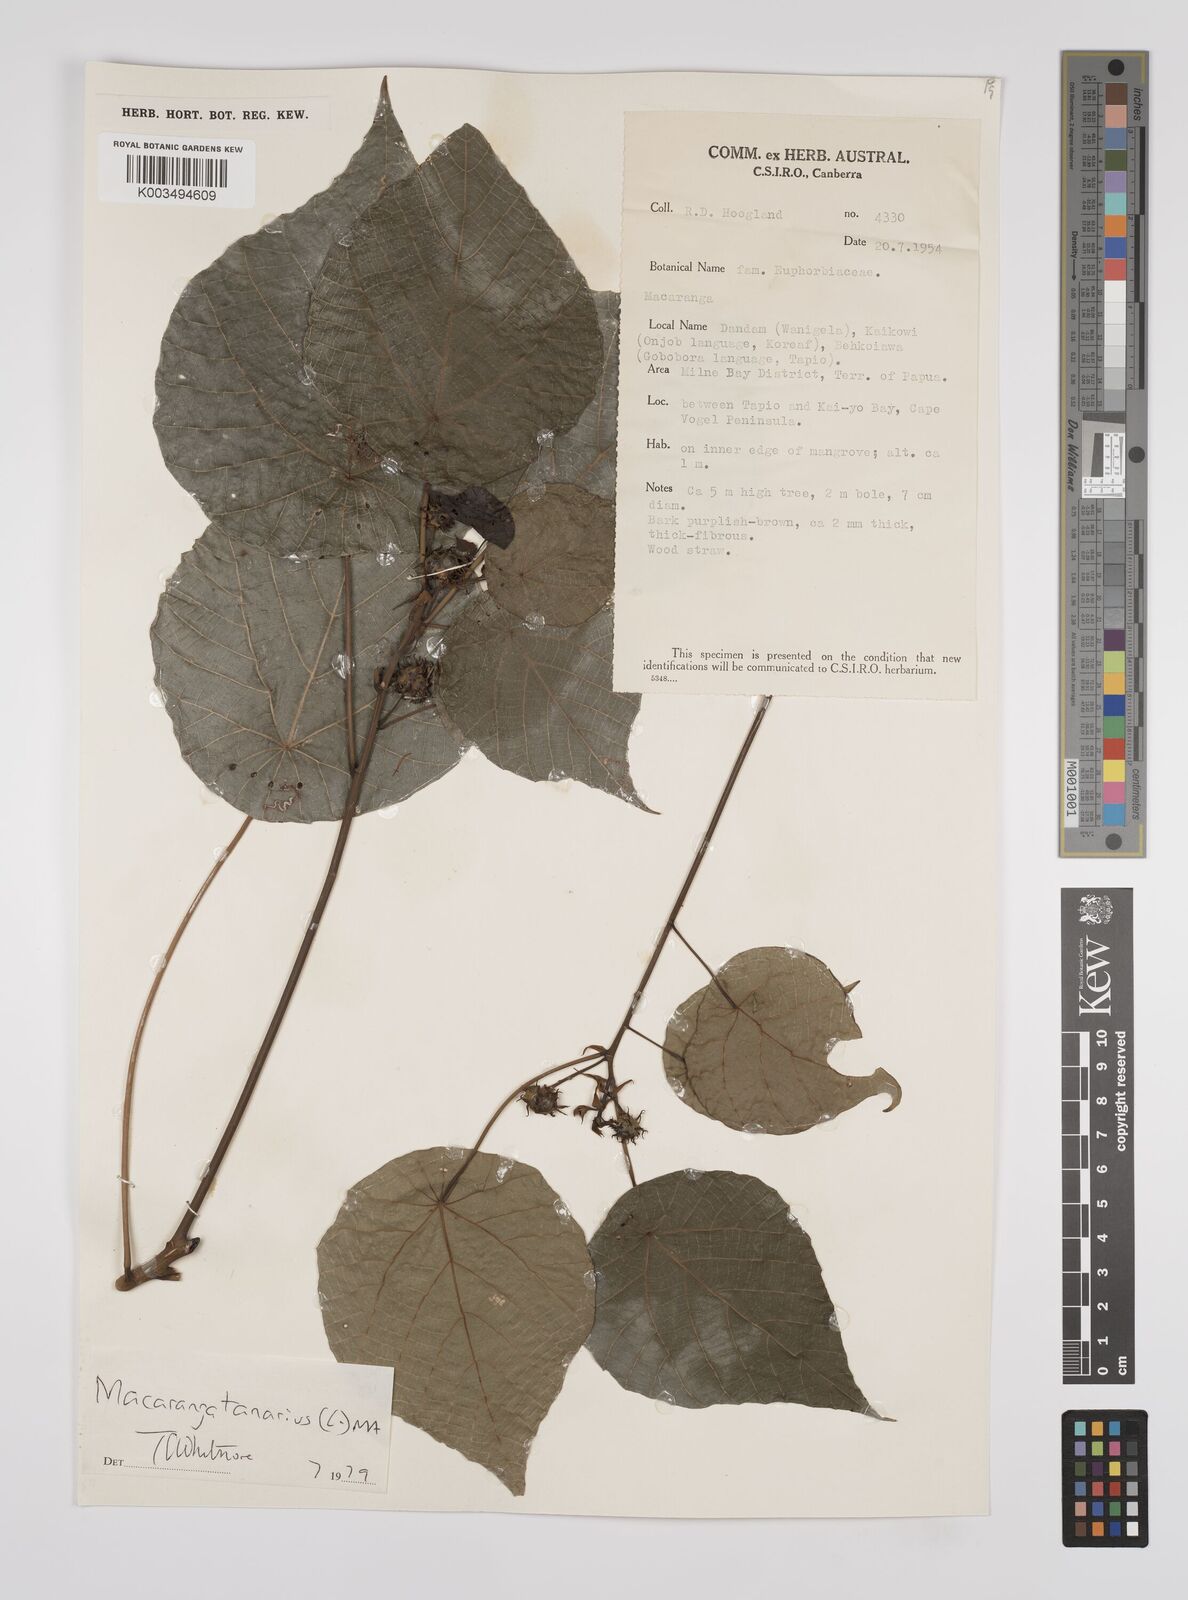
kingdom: Plantae
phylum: Tracheophyta
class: Magnoliopsida
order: Malpighiales
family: Euphorbiaceae
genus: Macaranga
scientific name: Macaranga tanarius
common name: Parasol leaf tree
